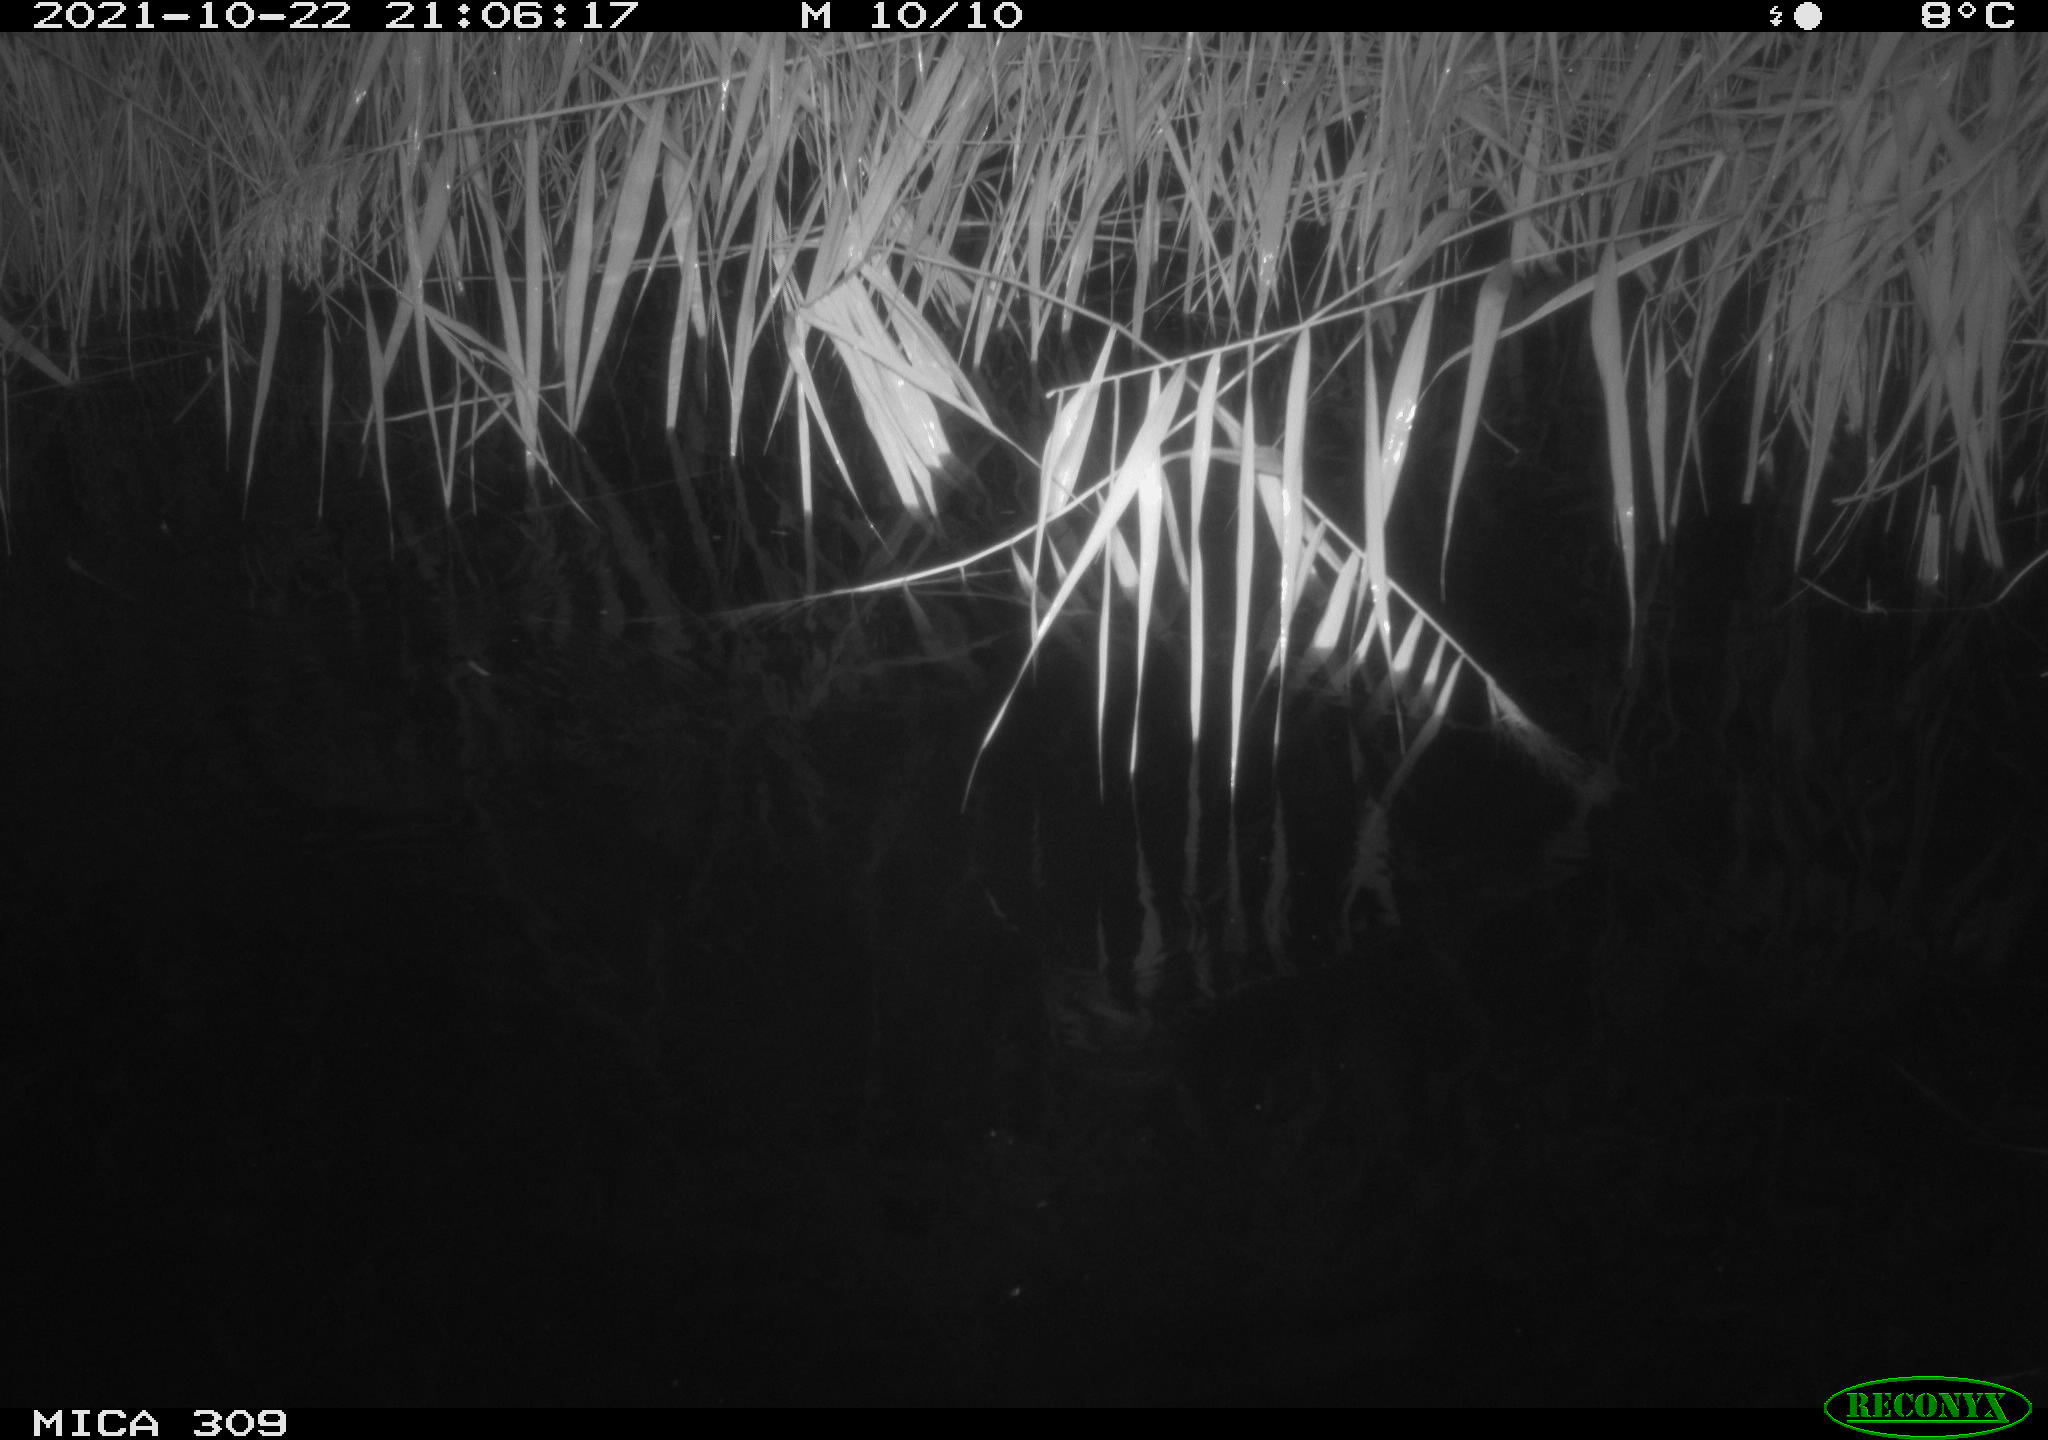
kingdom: Animalia
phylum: Chordata
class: Mammalia
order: Rodentia
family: Cricetidae
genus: Ondatra
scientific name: Ondatra zibethicus
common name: Muskrat
